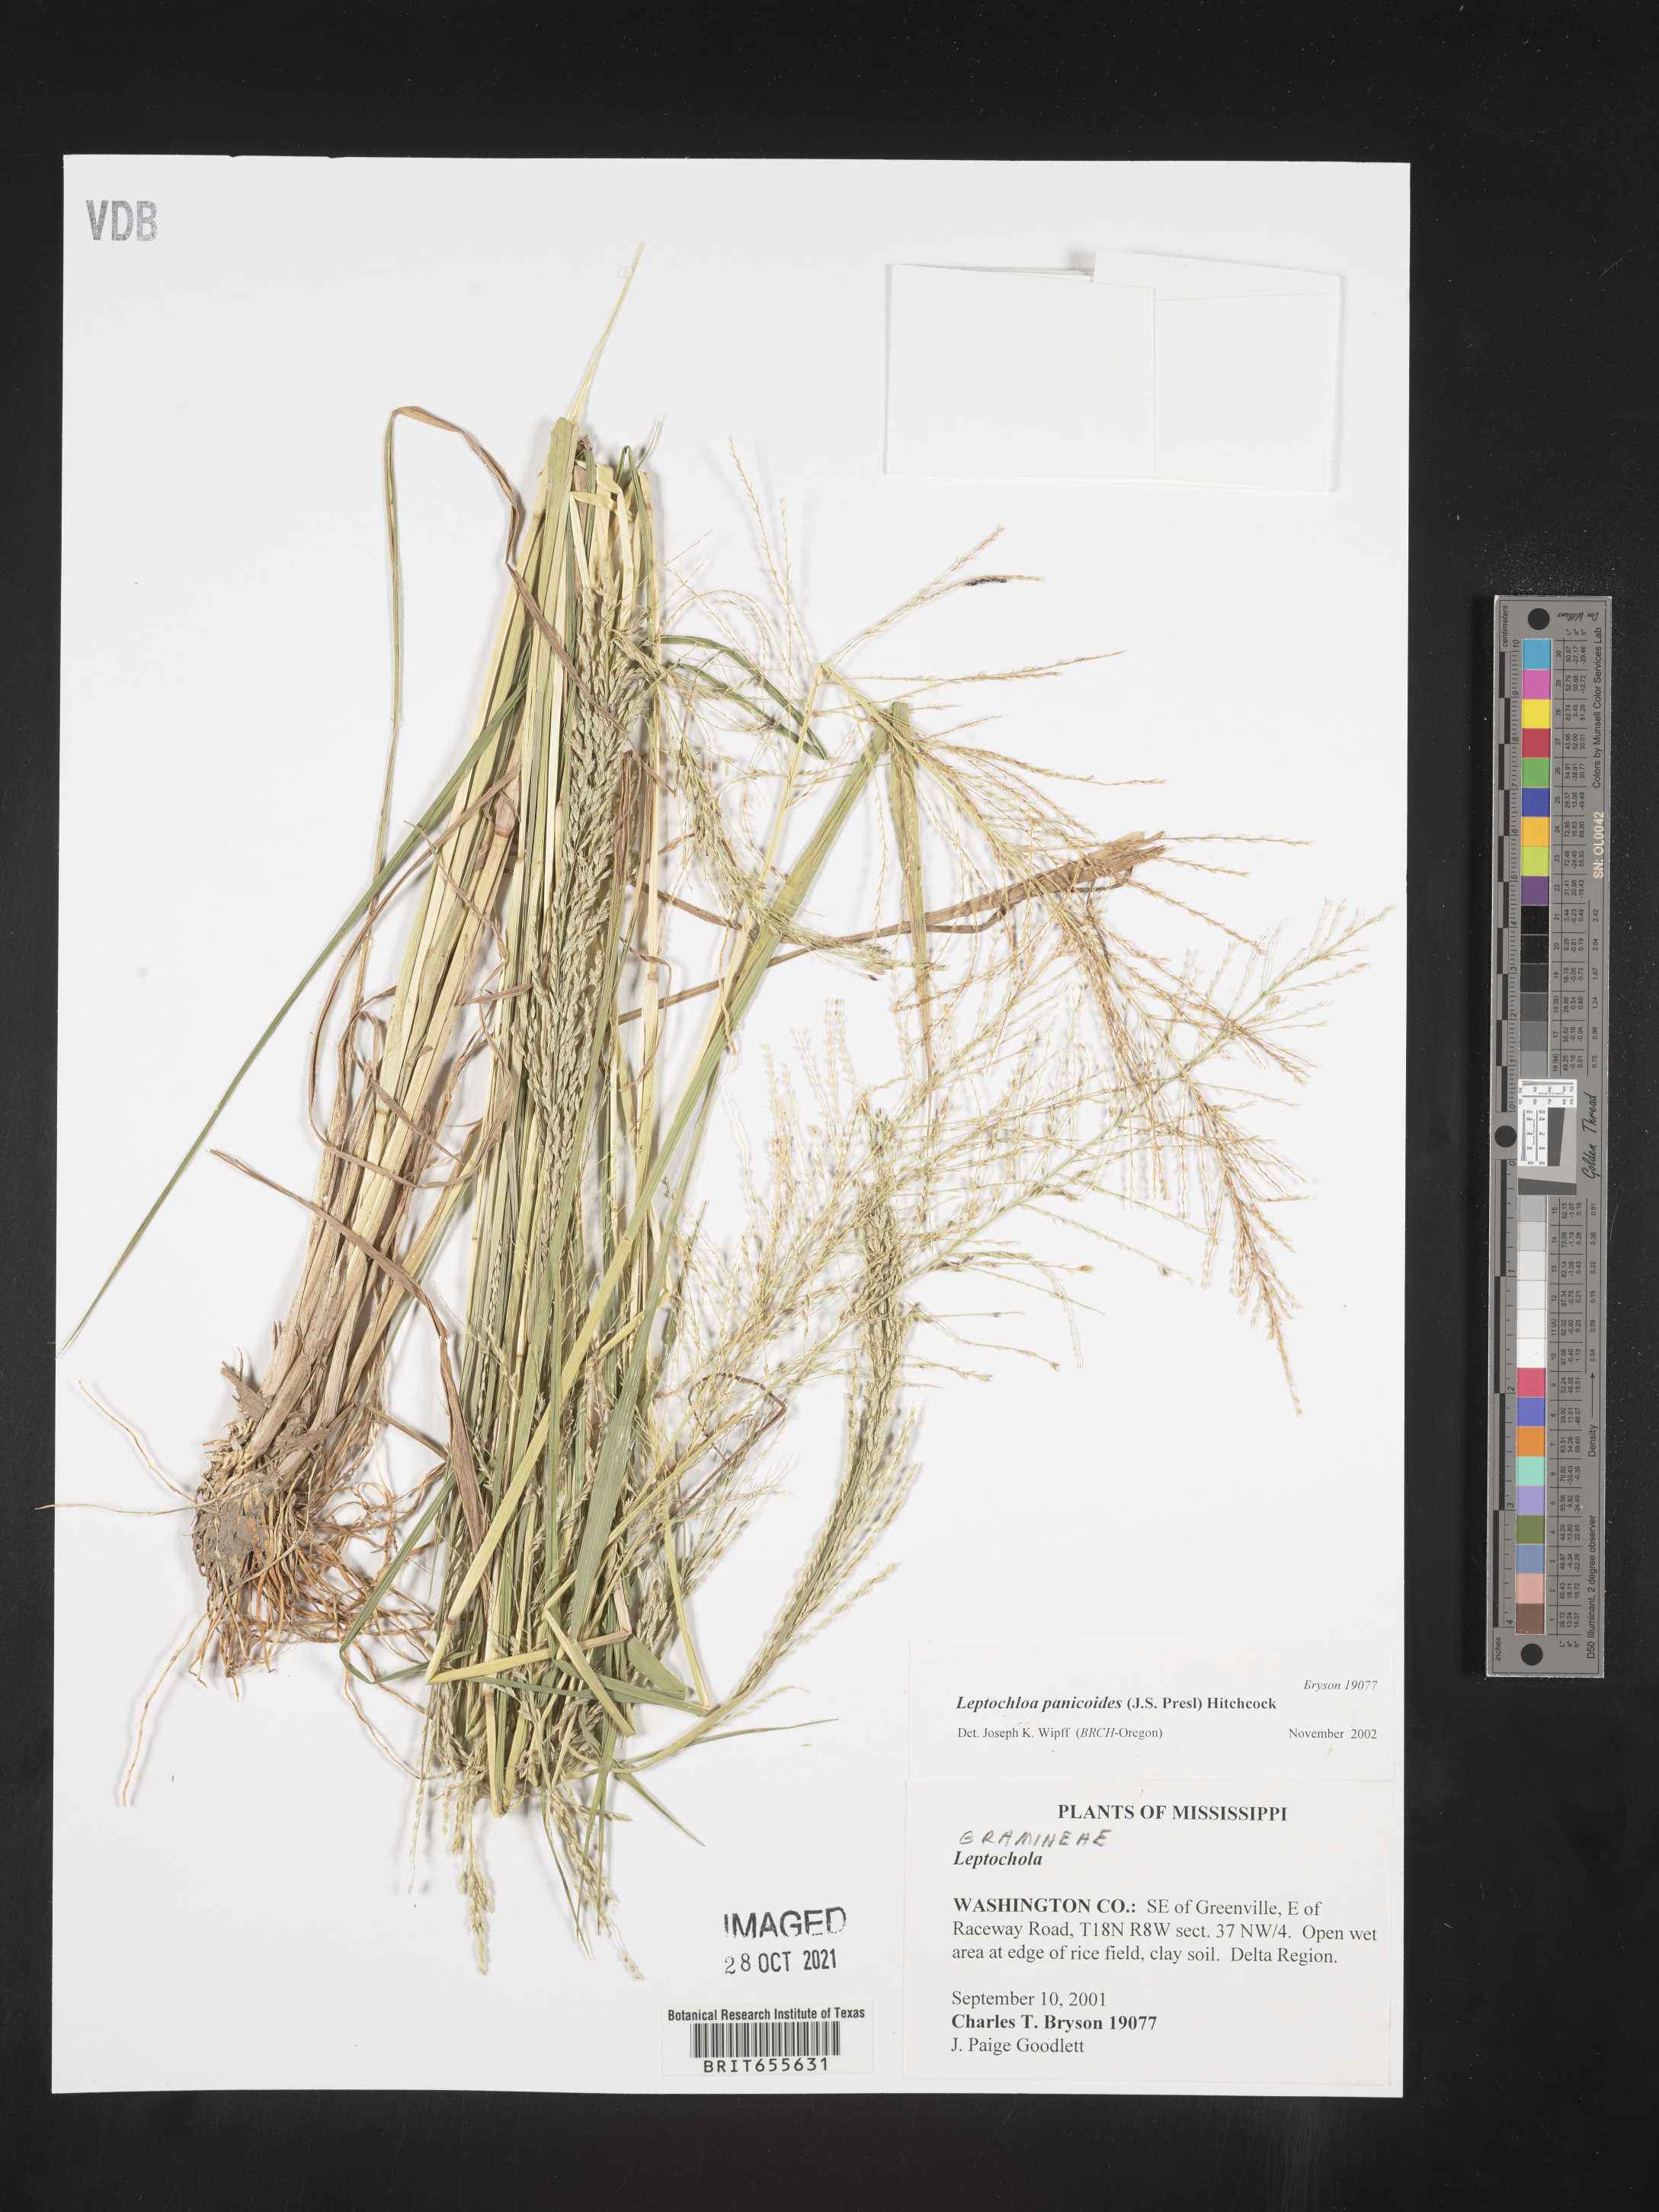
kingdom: Plantae
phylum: Tracheophyta
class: Liliopsida
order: Poales
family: Poaceae
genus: Leptochloa
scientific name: Leptochloa
